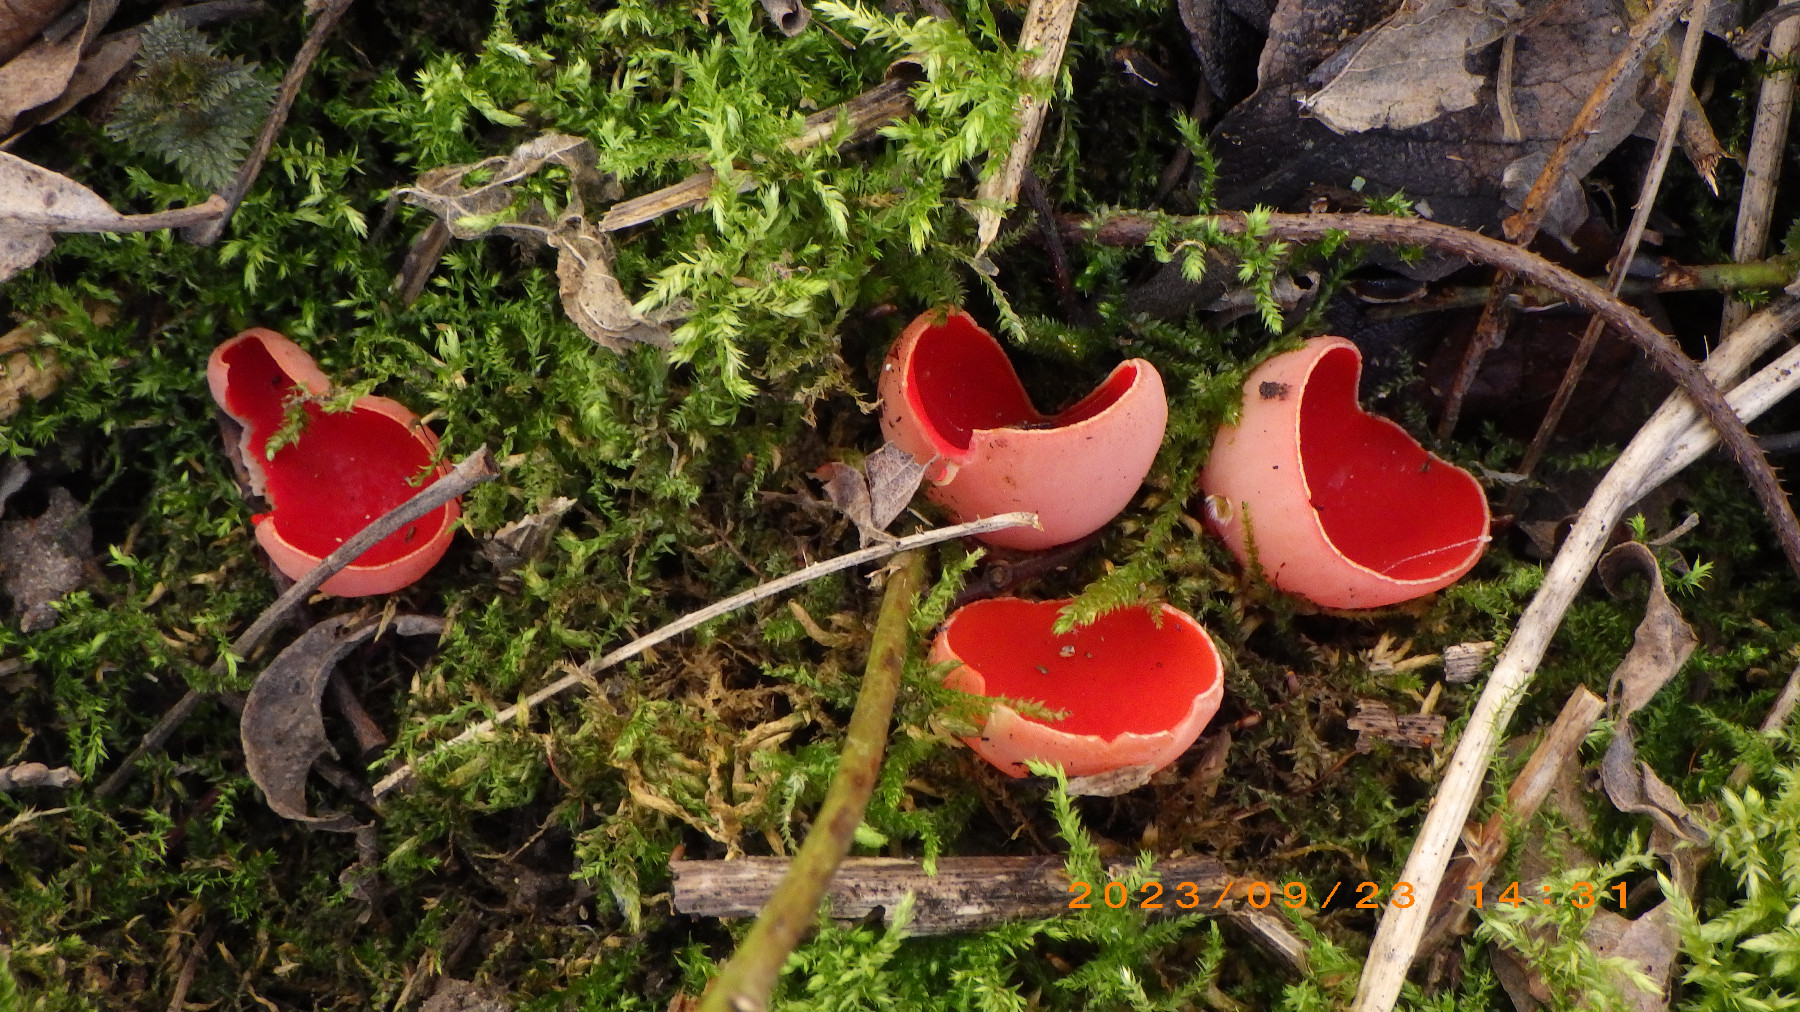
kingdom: Fungi
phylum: Ascomycota
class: Pezizomycetes
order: Pezizales
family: Sarcoscyphaceae
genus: Sarcoscypha
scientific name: Sarcoscypha austriaca
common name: krølhåret pragtbæger
